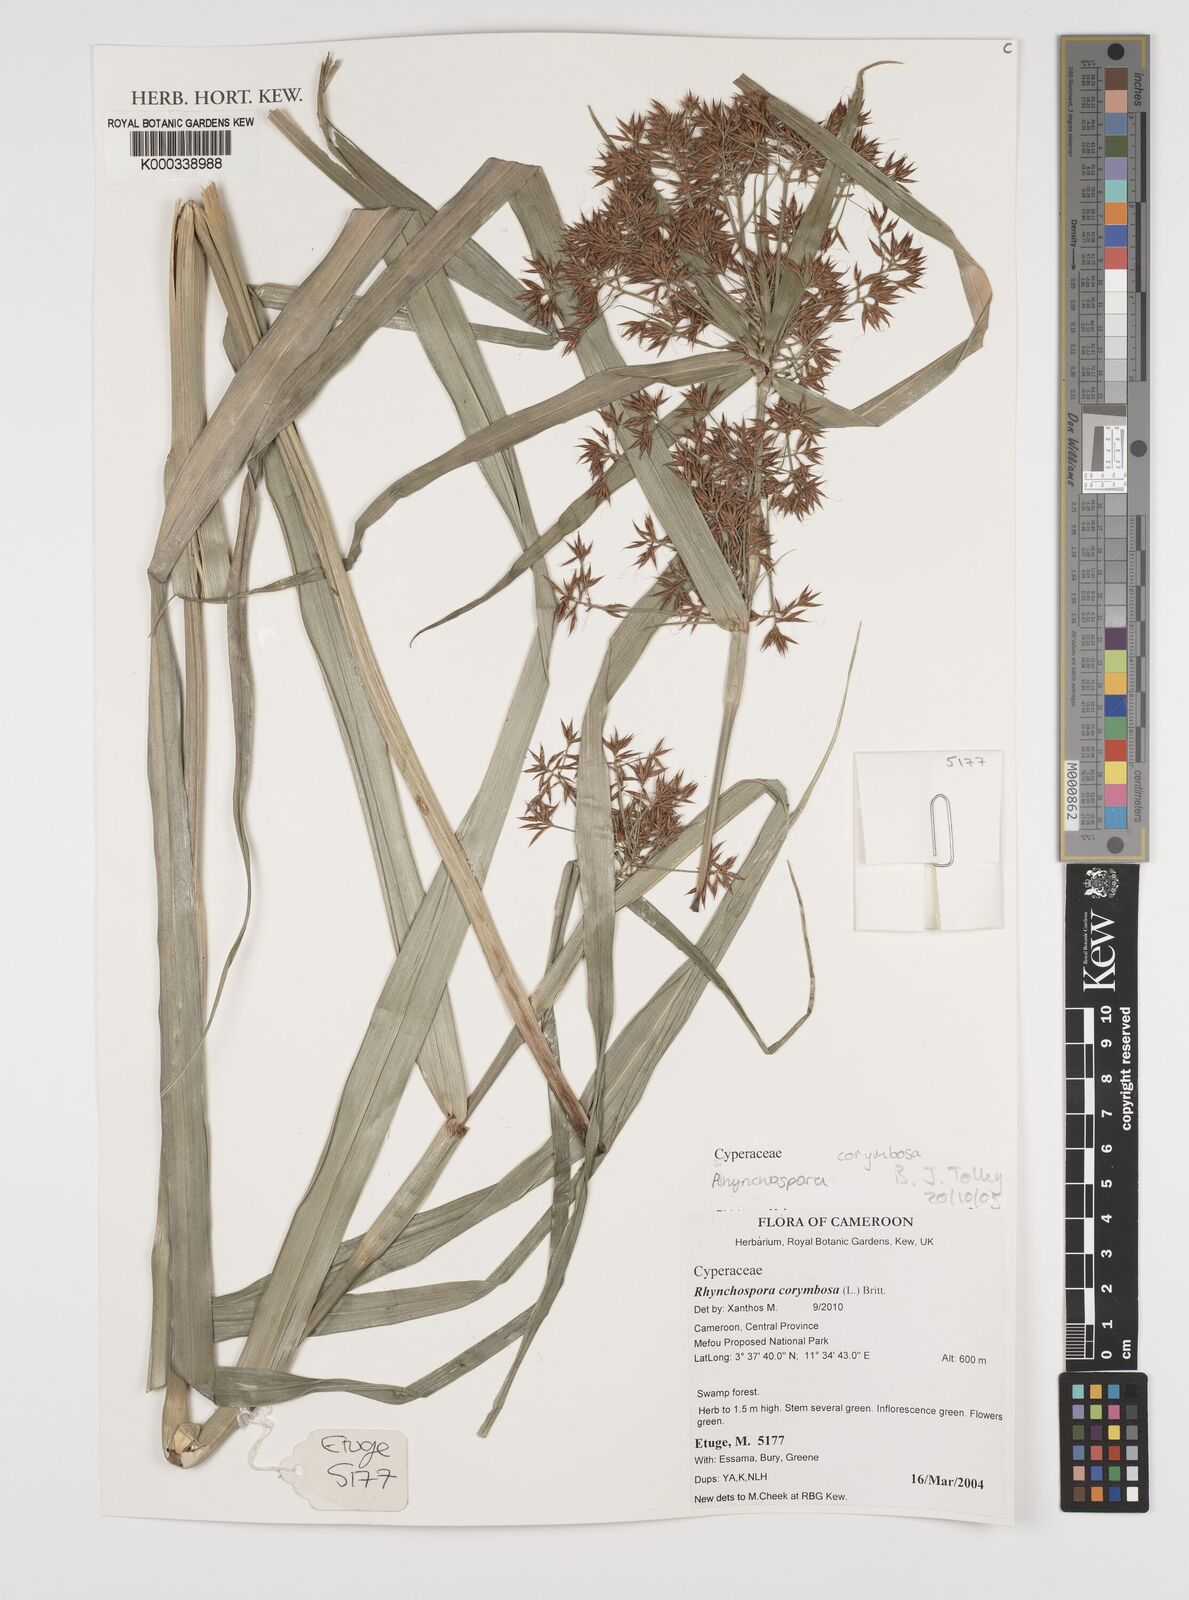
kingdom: Plantae
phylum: Tracheophyta
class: Liliopsida
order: Poales
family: Cyperaceae
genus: Rhynchospora
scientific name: Rhynchospora corymbosa
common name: Golden beak sedge
